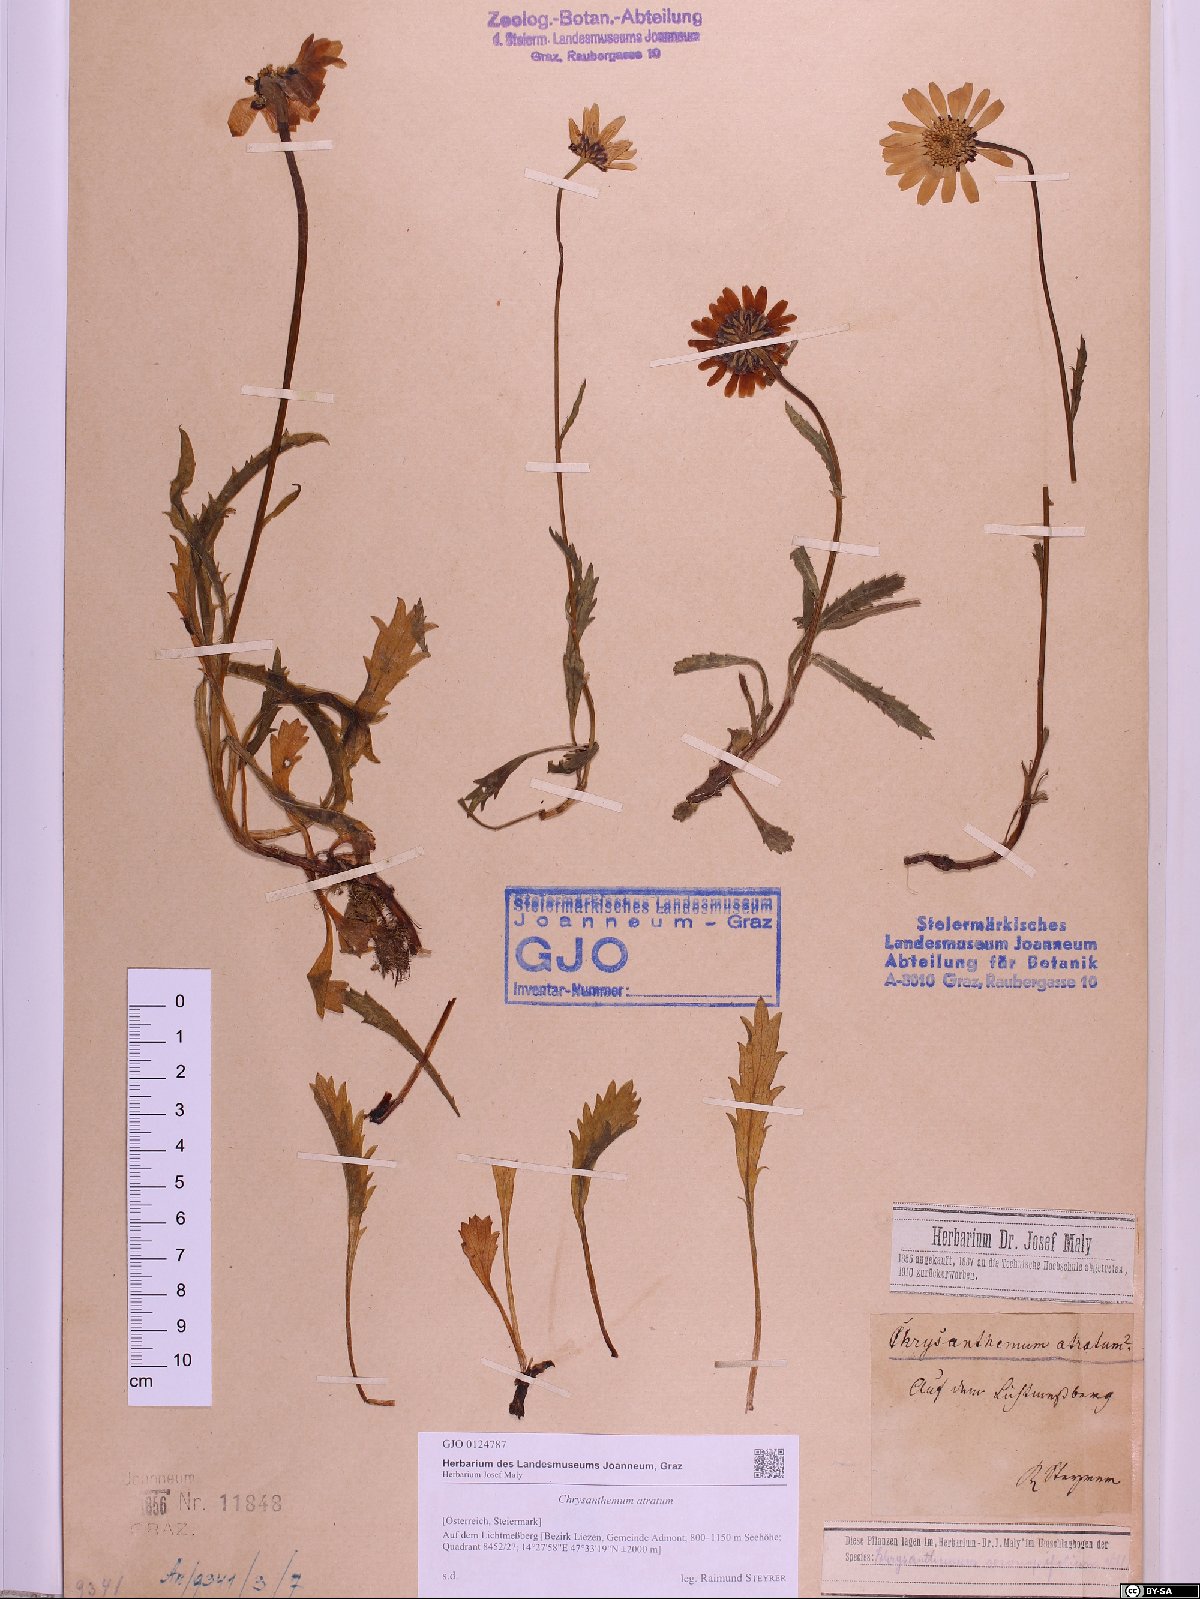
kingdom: Plantae
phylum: Tracheophyta
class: Magnoliopsida
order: Asterales
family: Asteraceae
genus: Leucanthemum
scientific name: Leucanthemum atratum
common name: Saw-leaved moon-daisy
